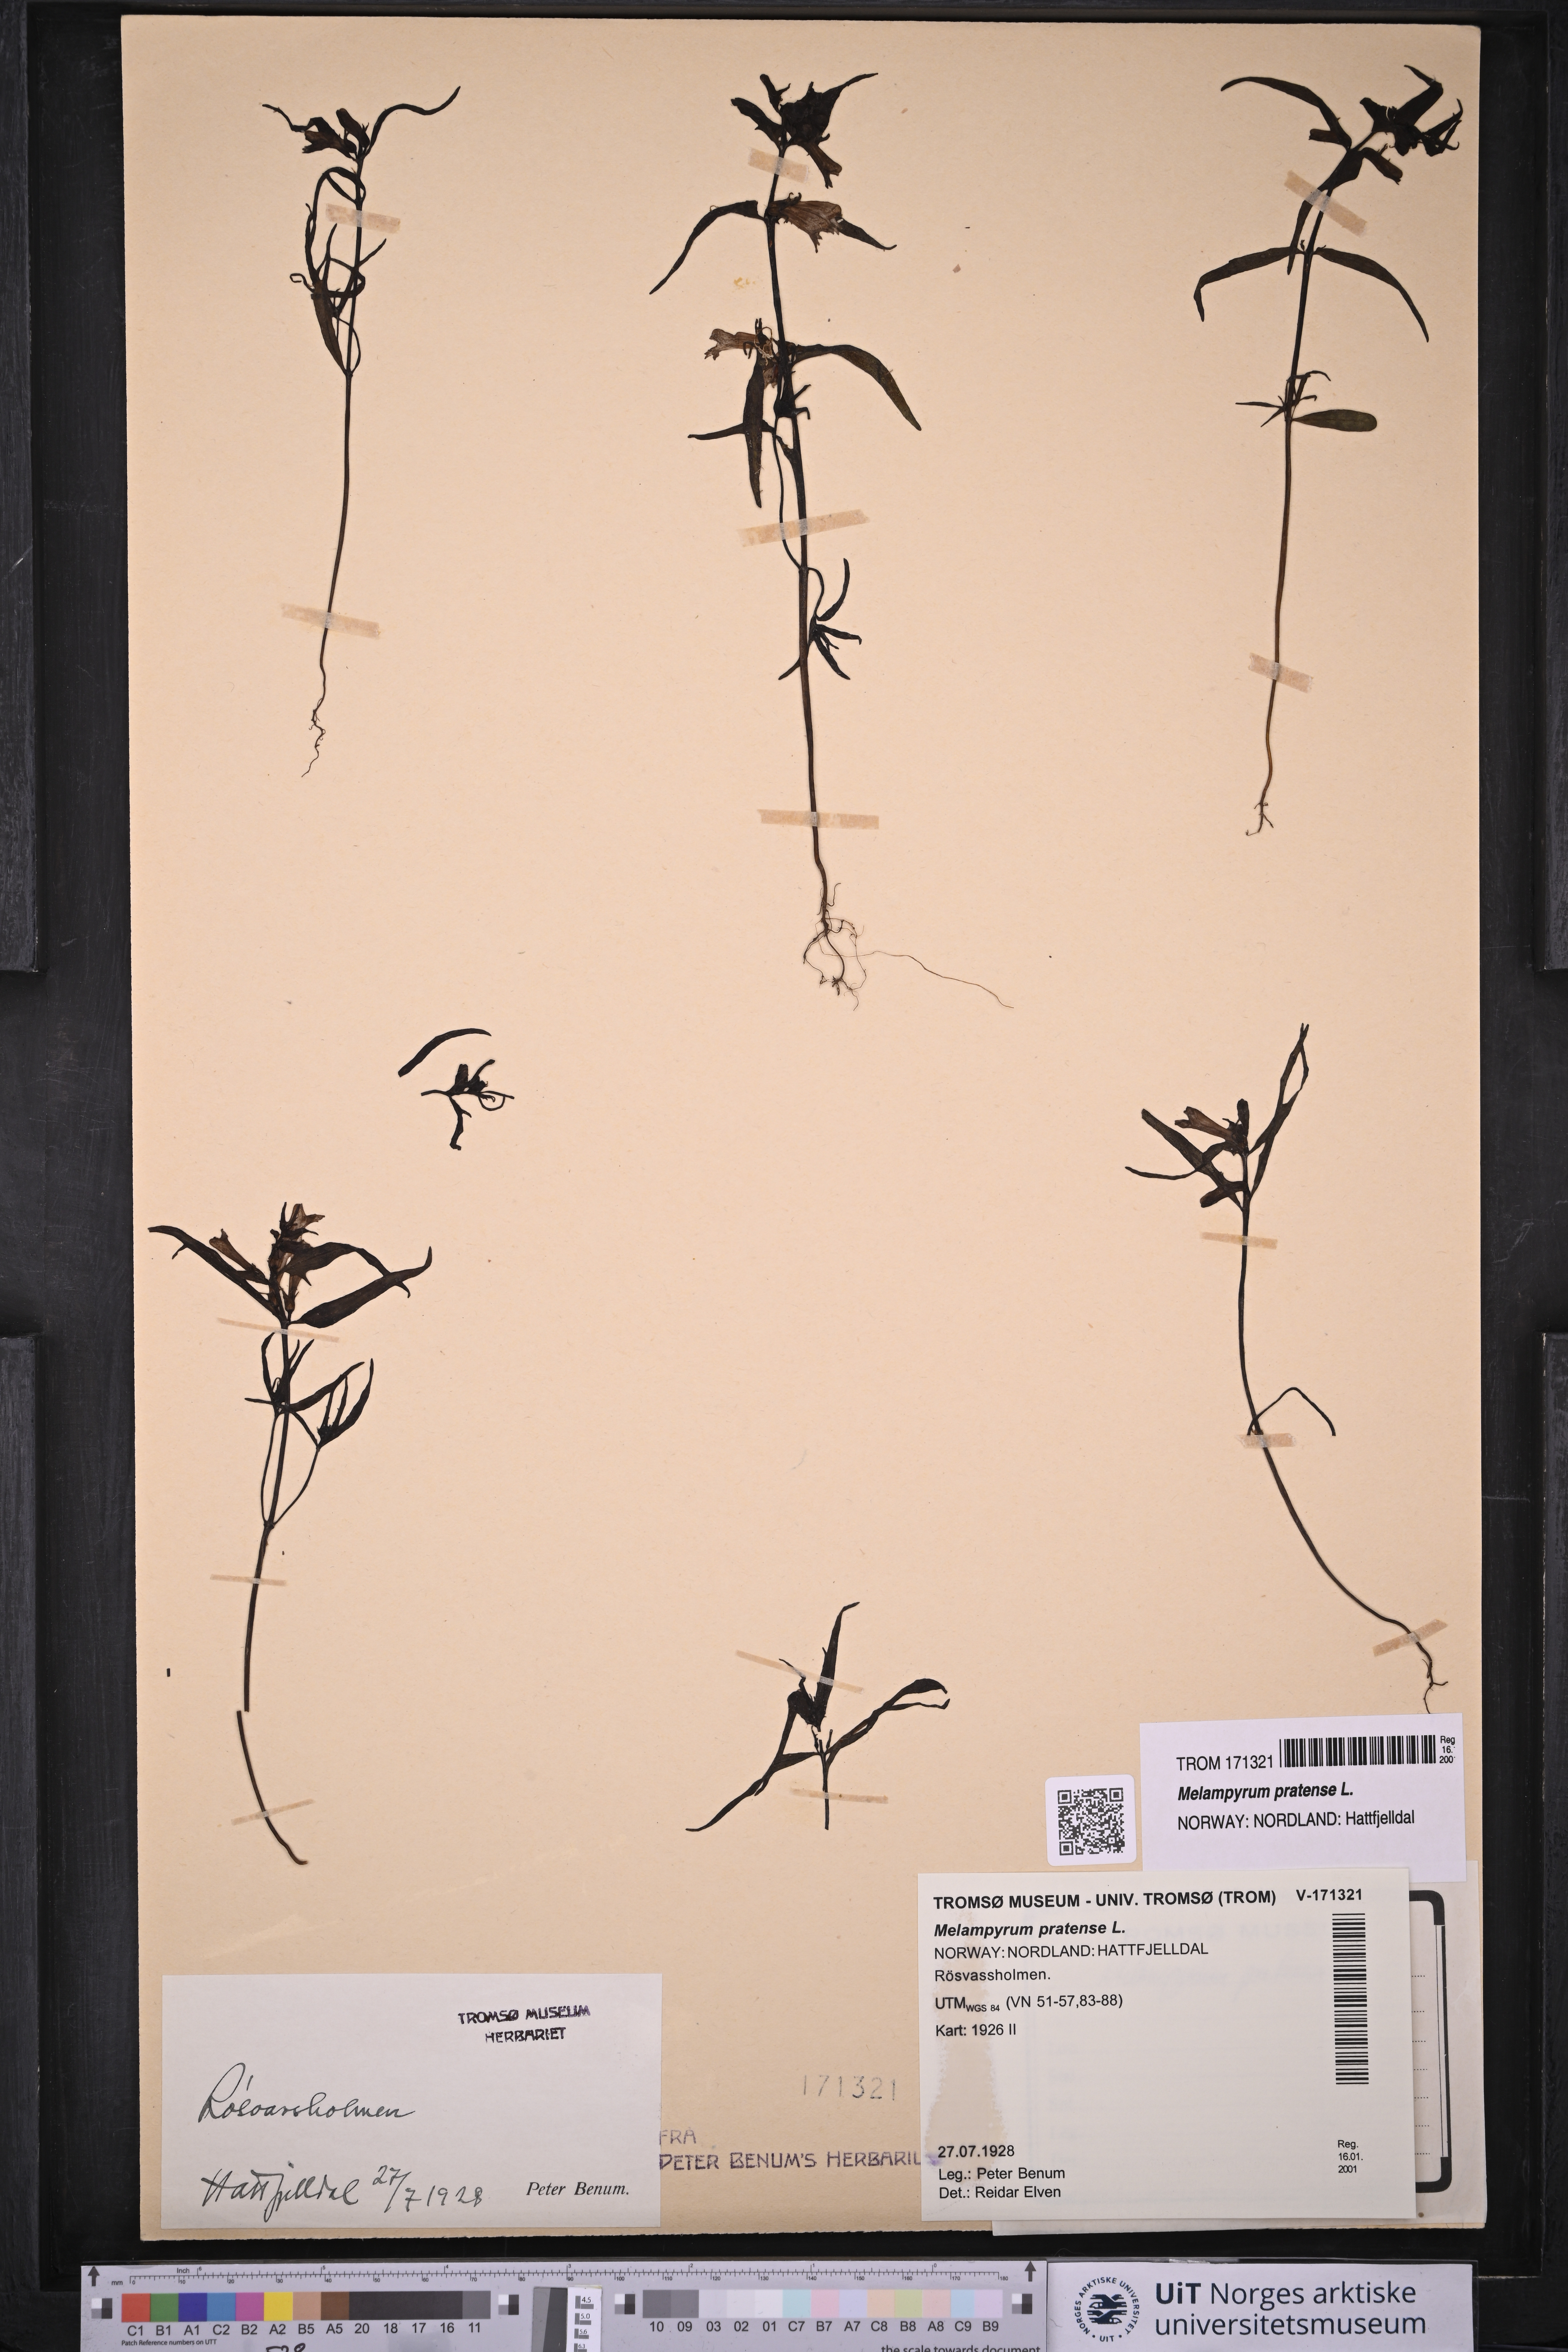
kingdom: Plantae
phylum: Tracheophyta
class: Magnoliopsida
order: Lamiales
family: Orobanchaceae
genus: Melampyrum
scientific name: Melampyrum pratense
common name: Common cow-wheat
